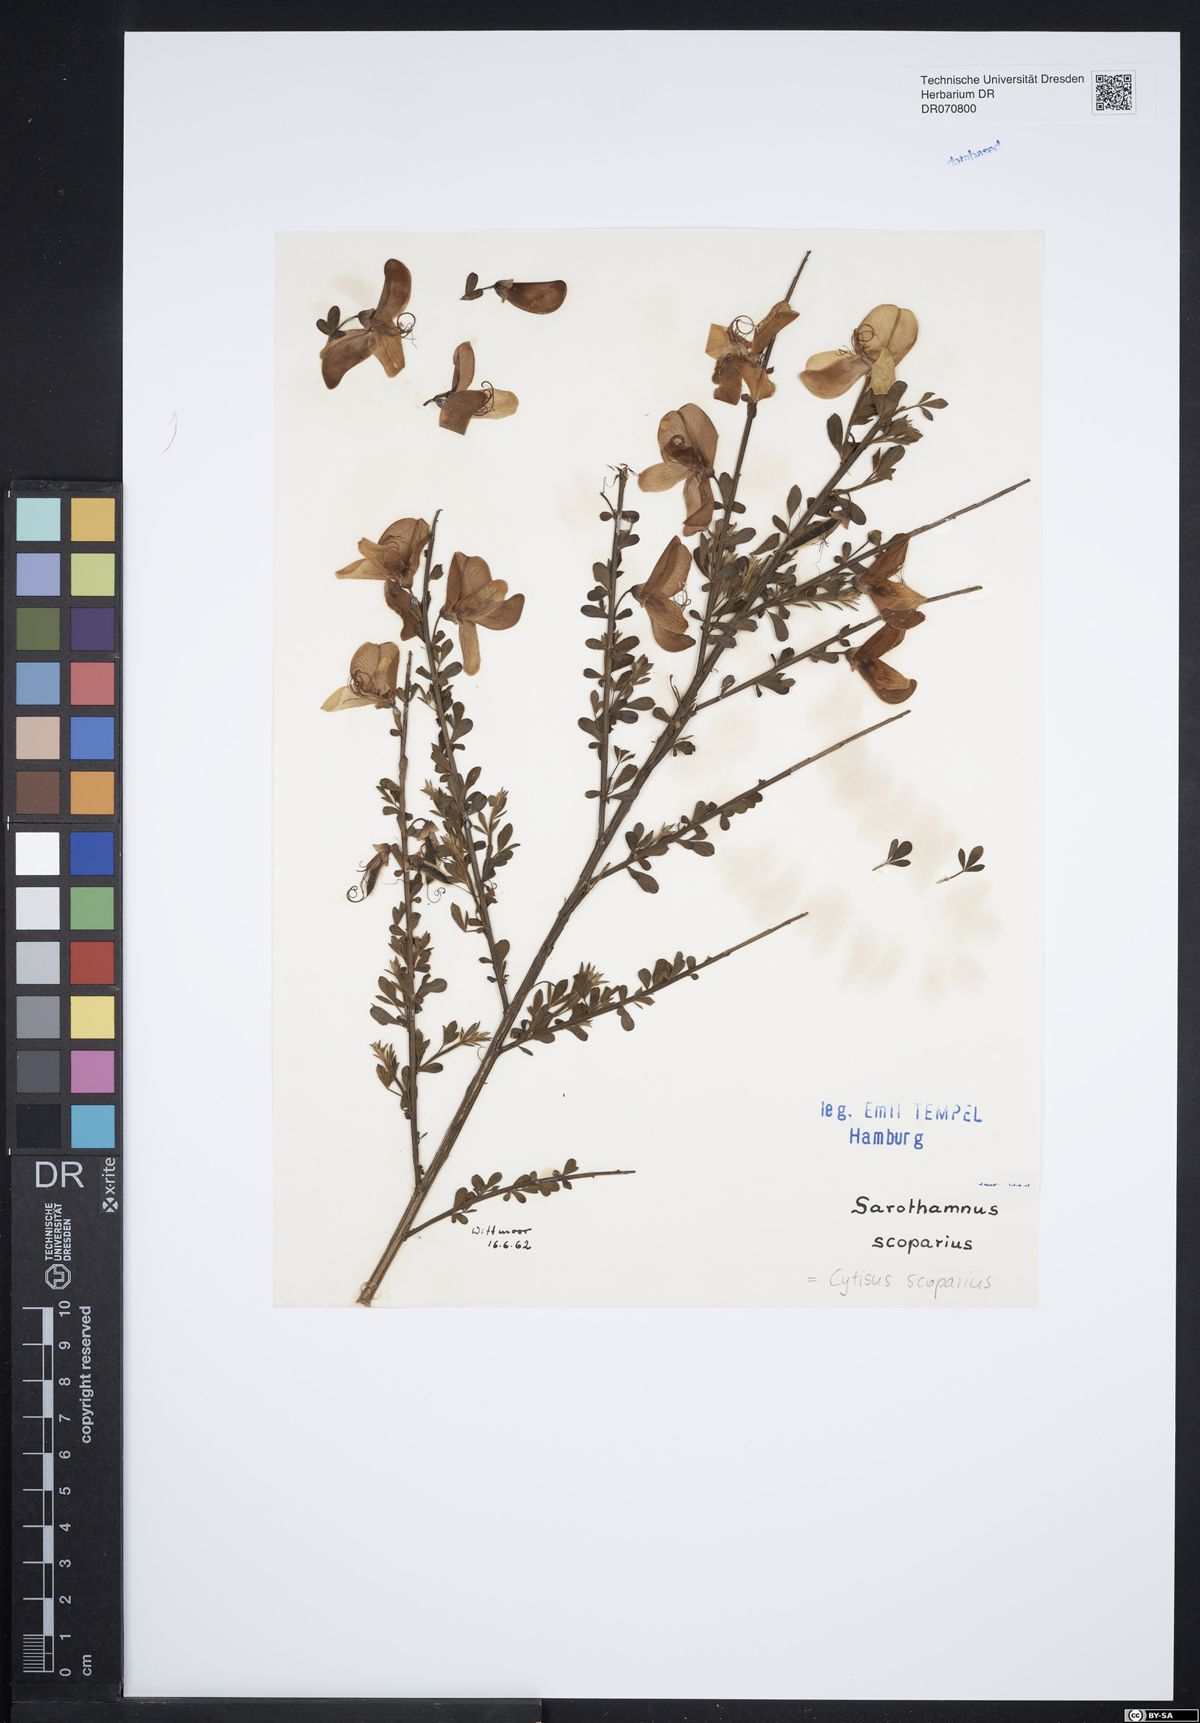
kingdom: Plantae
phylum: Tracheophyta
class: Magnoliopsida
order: Fabales
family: Fabaceae
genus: Cytisus
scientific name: Cytisus scoparius
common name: Scotch broom
